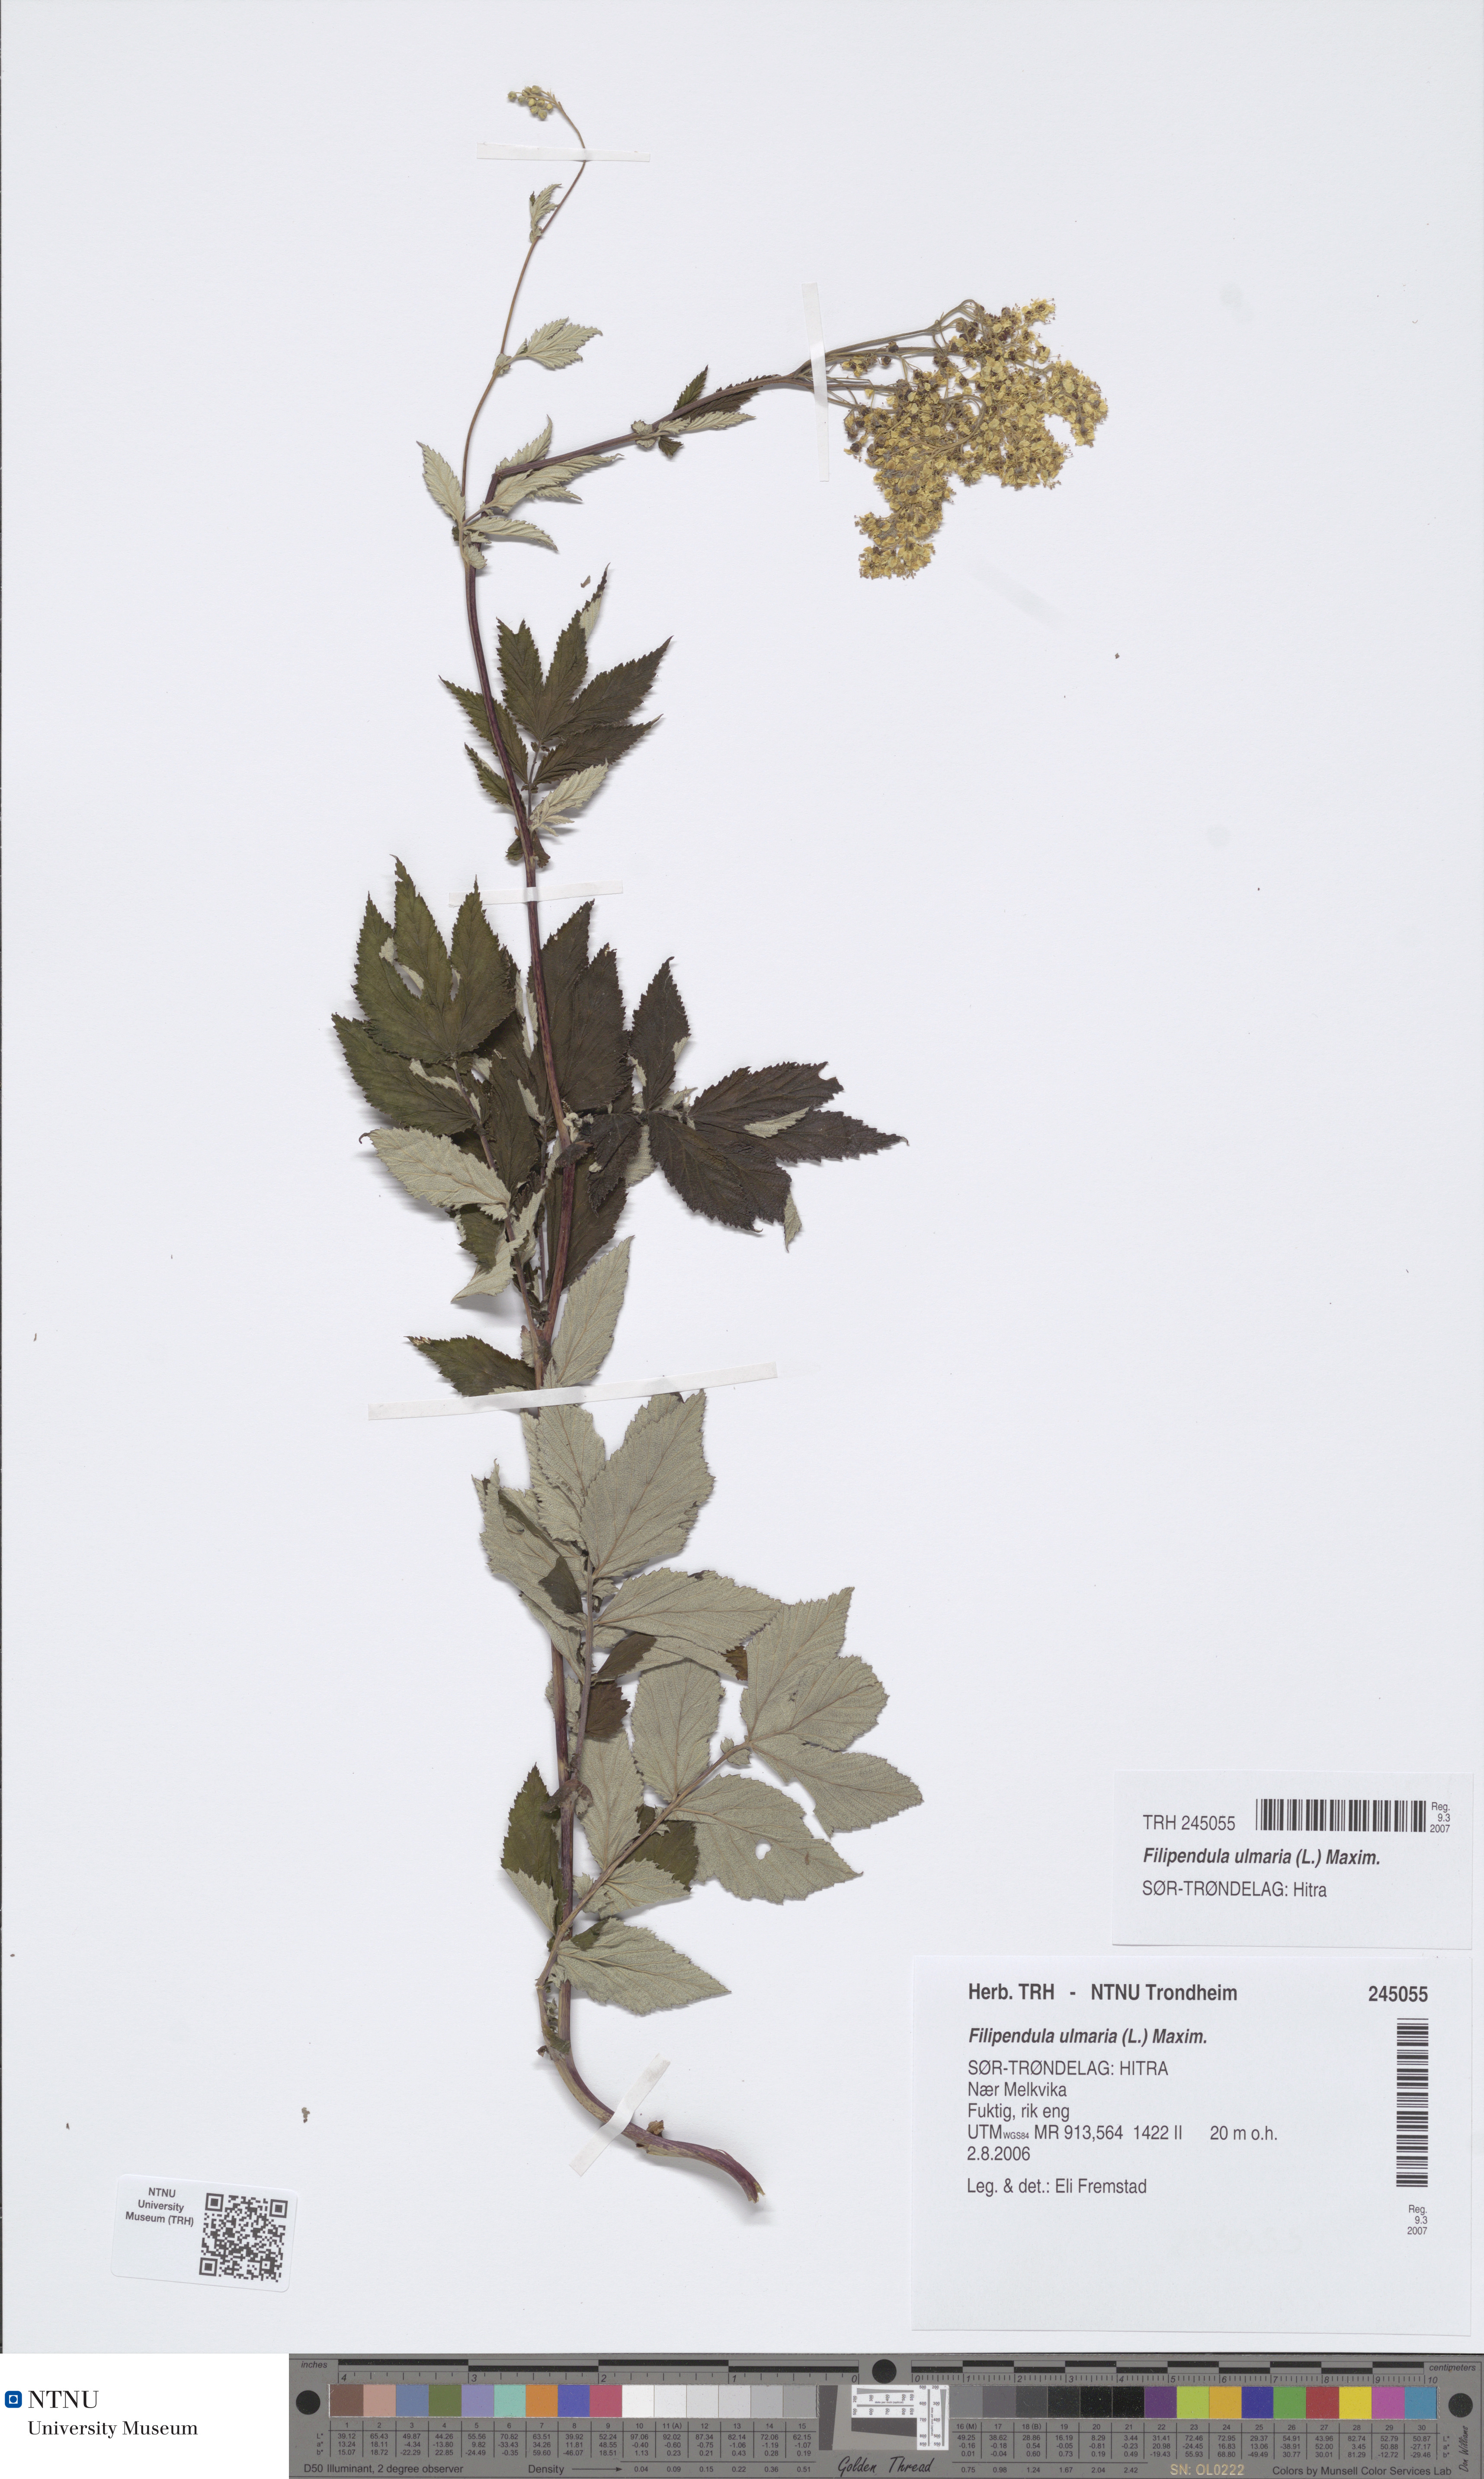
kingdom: Plantae
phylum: Tracheophyta
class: Magnoliopsida
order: Rosales
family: Rosaceae
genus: Filipendula
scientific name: Filipendula ulmaria
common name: Meadowsweet
